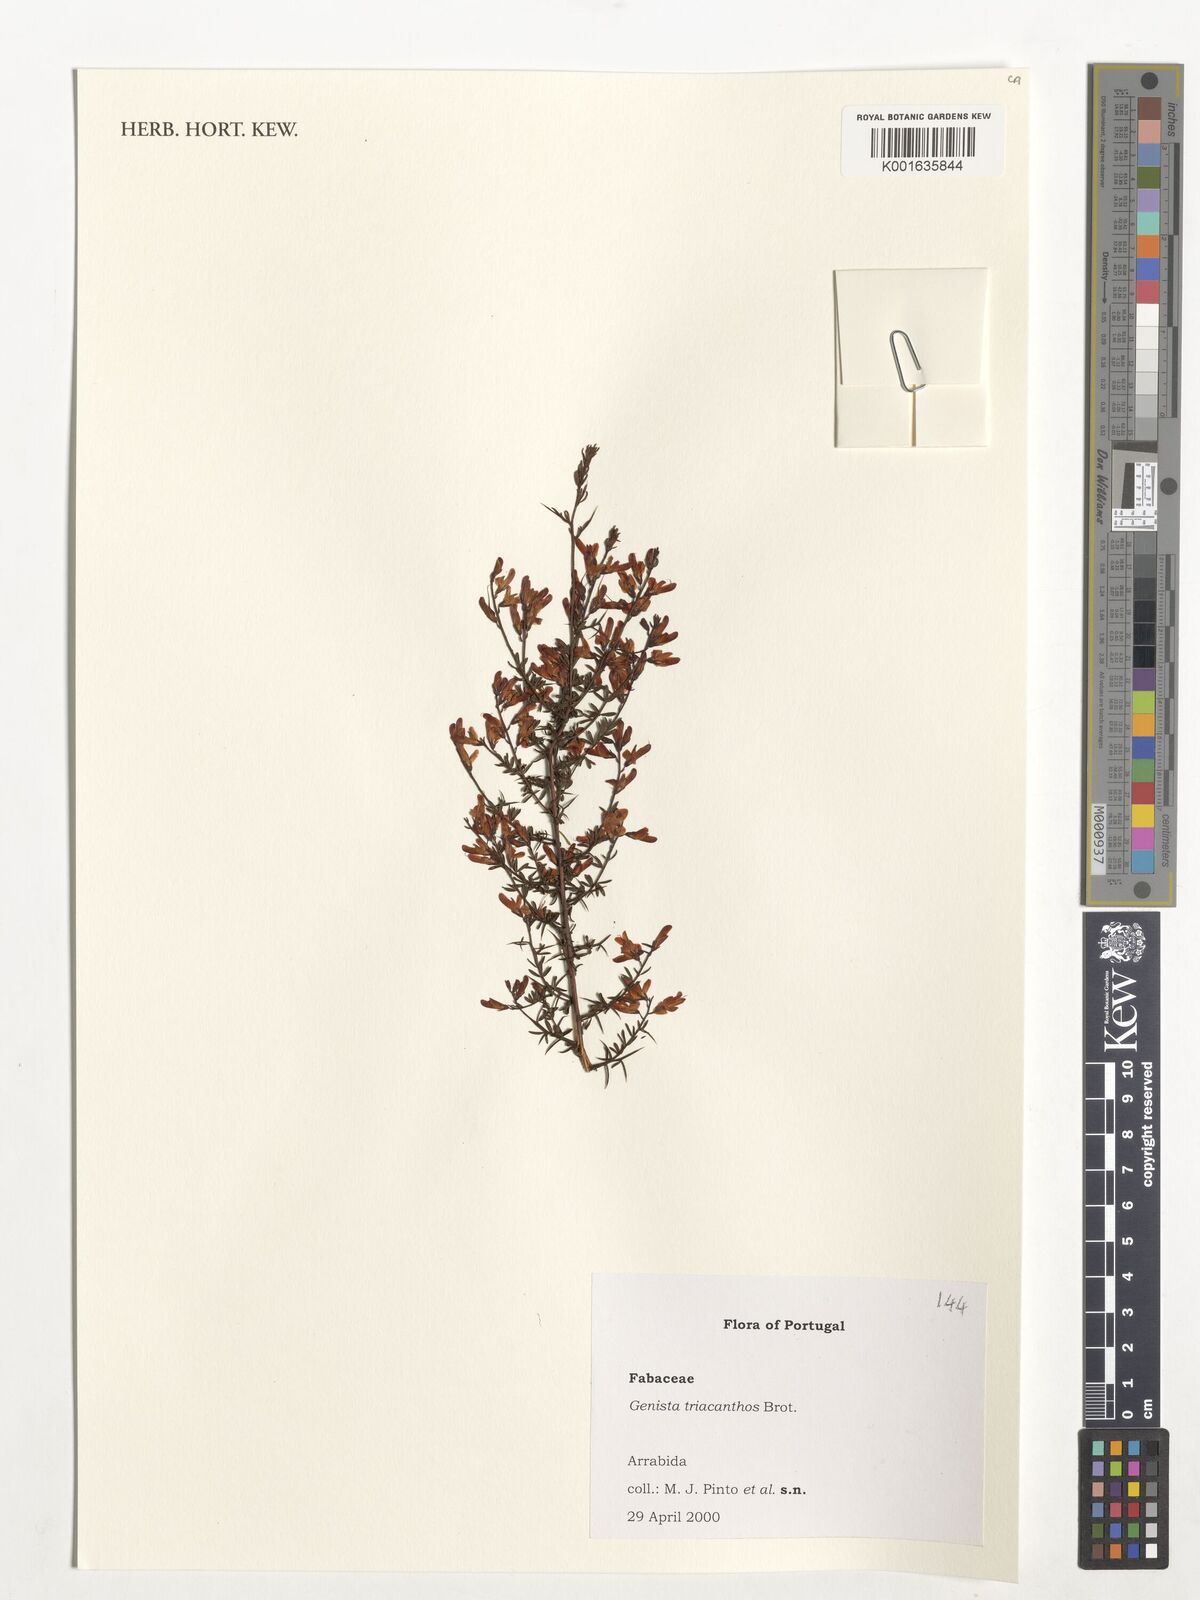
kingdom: Plantae
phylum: Tracheophyta
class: Magnoliopsida
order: Fabales
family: Fabaceae
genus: Genista
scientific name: Genista triacanthos
